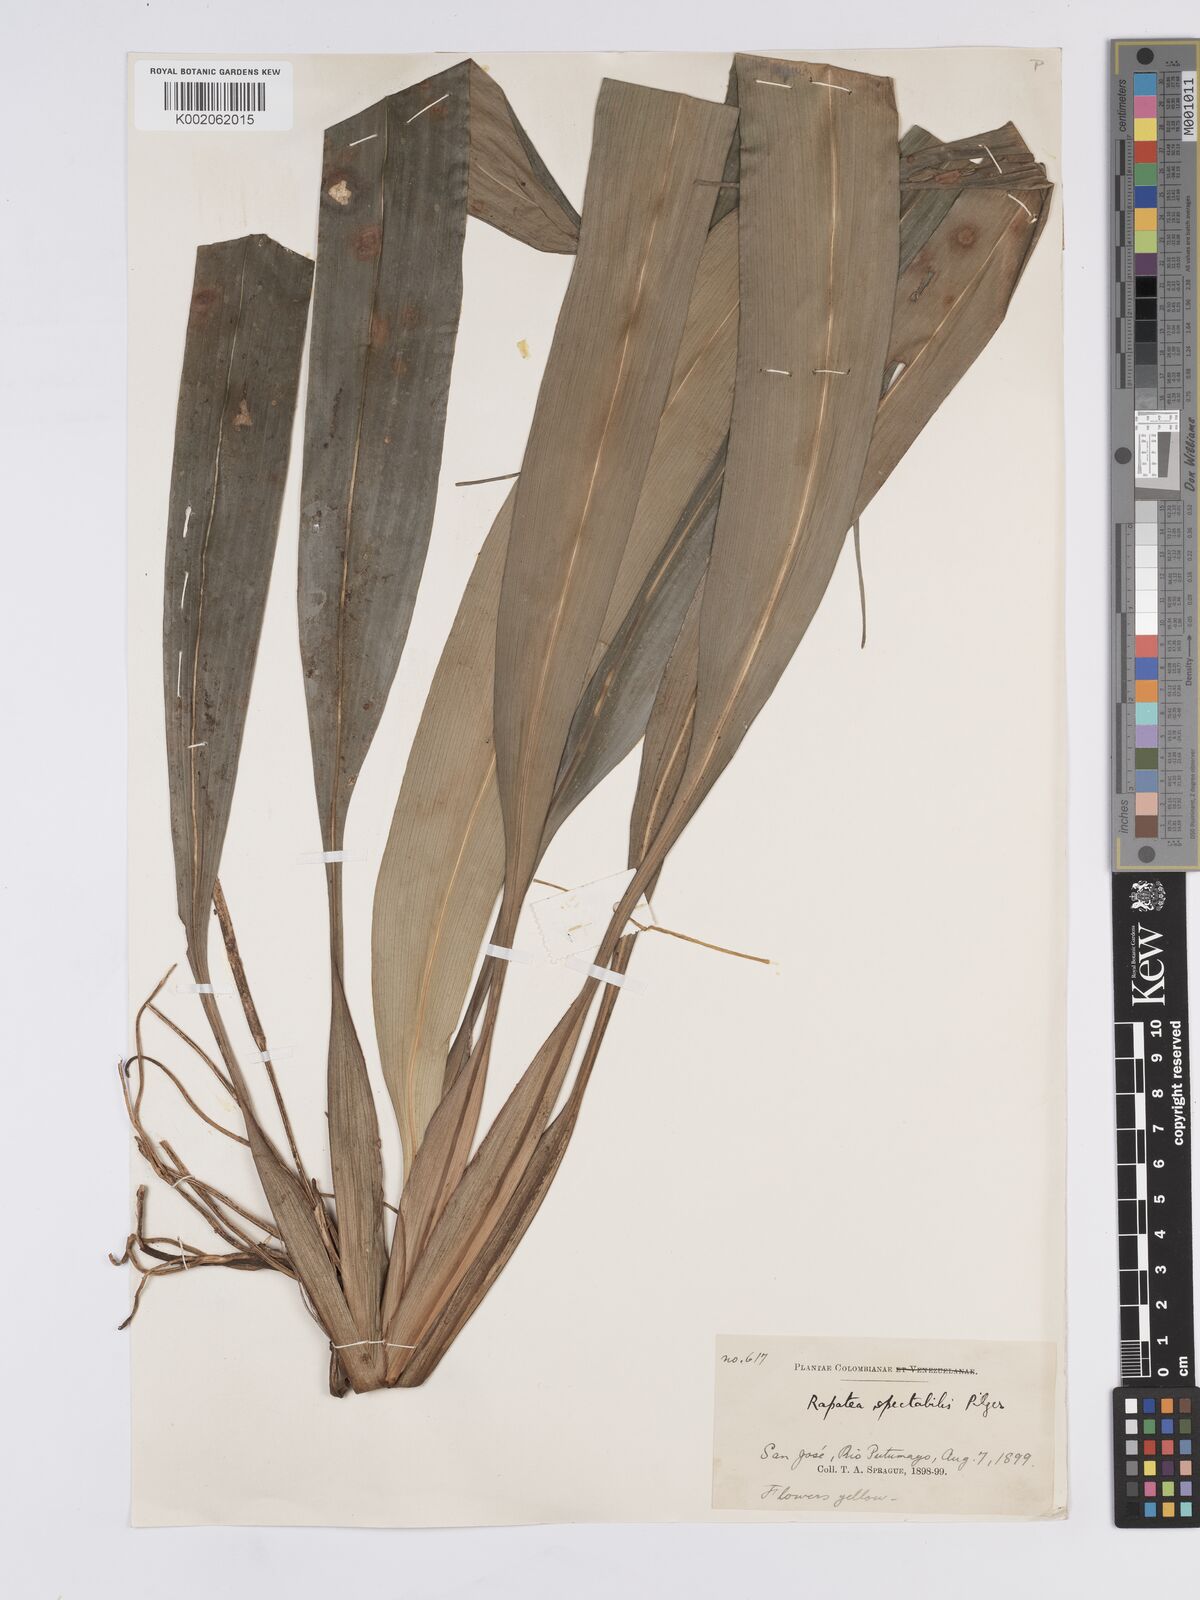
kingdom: Plantae
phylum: Tracheophyta
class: Liliopsida
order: Poales
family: Rapateaceae
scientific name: Rapateaceae
